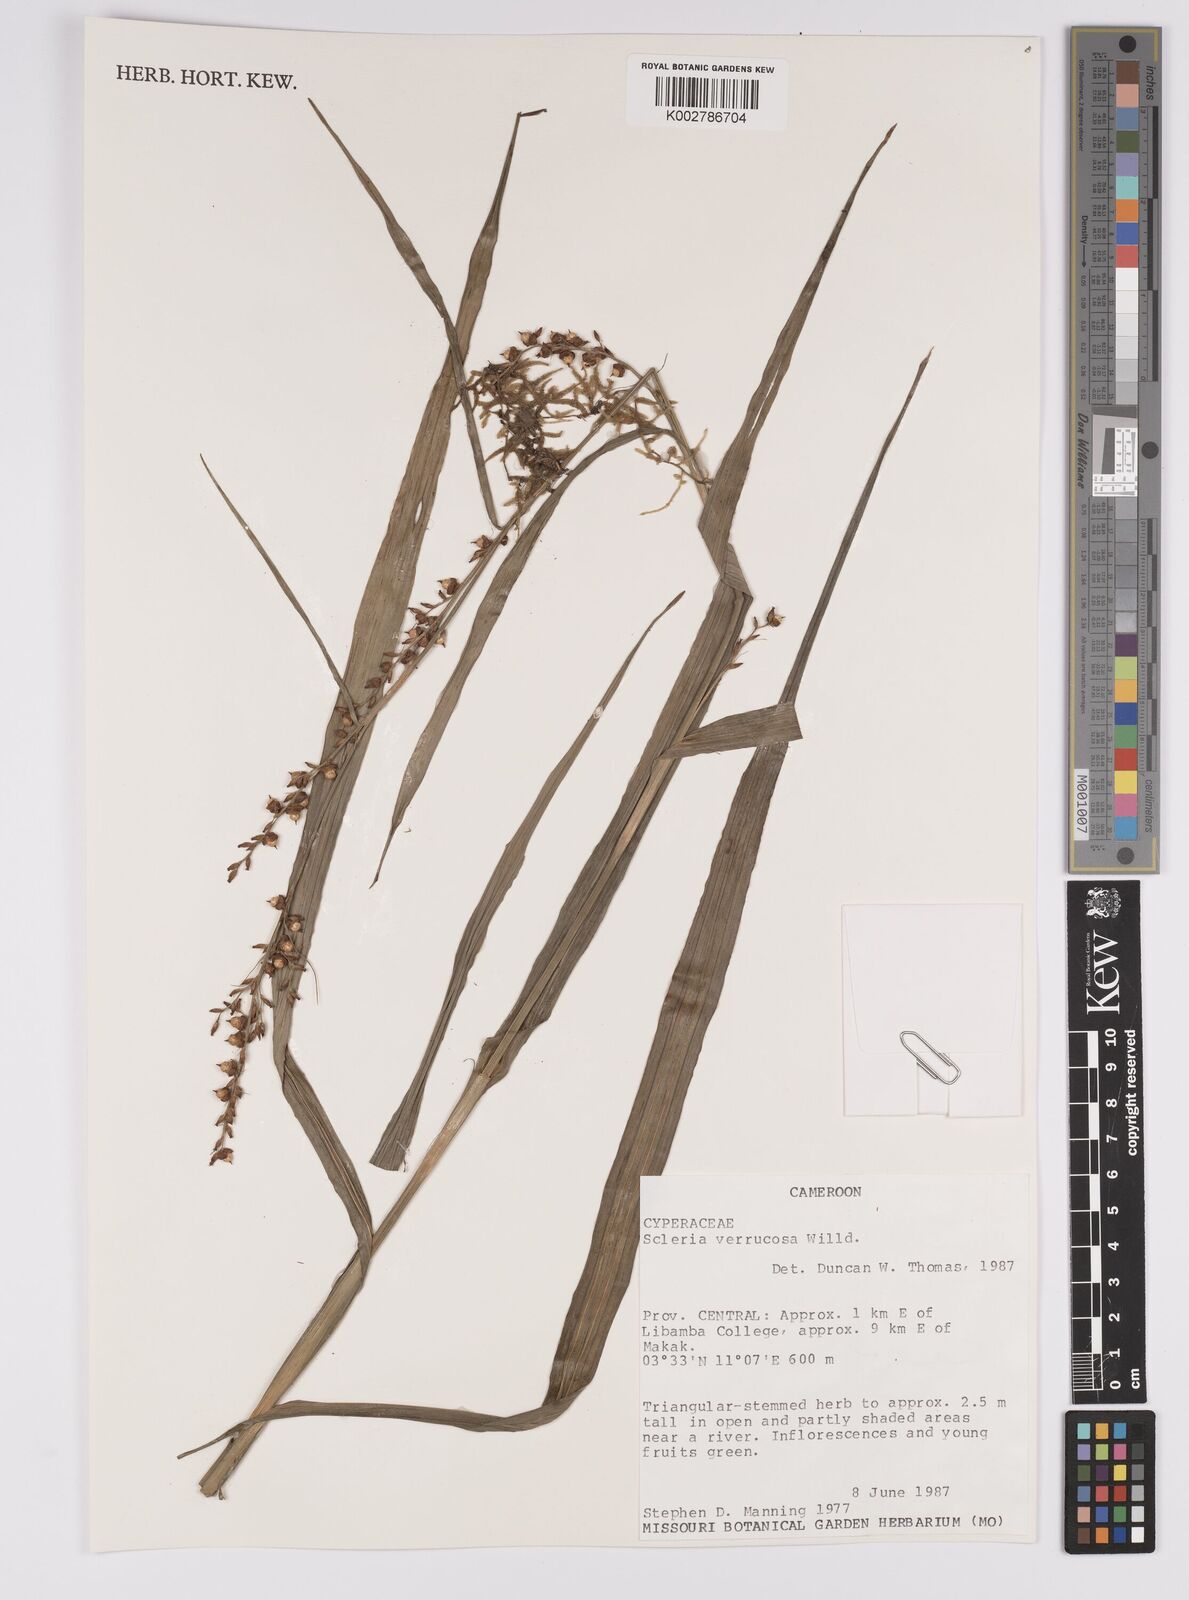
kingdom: Plantae
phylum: Tracheophyta
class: Liliopsida
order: Poales
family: Cyperaceae
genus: Scleria
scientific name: Scleria verrucosa
